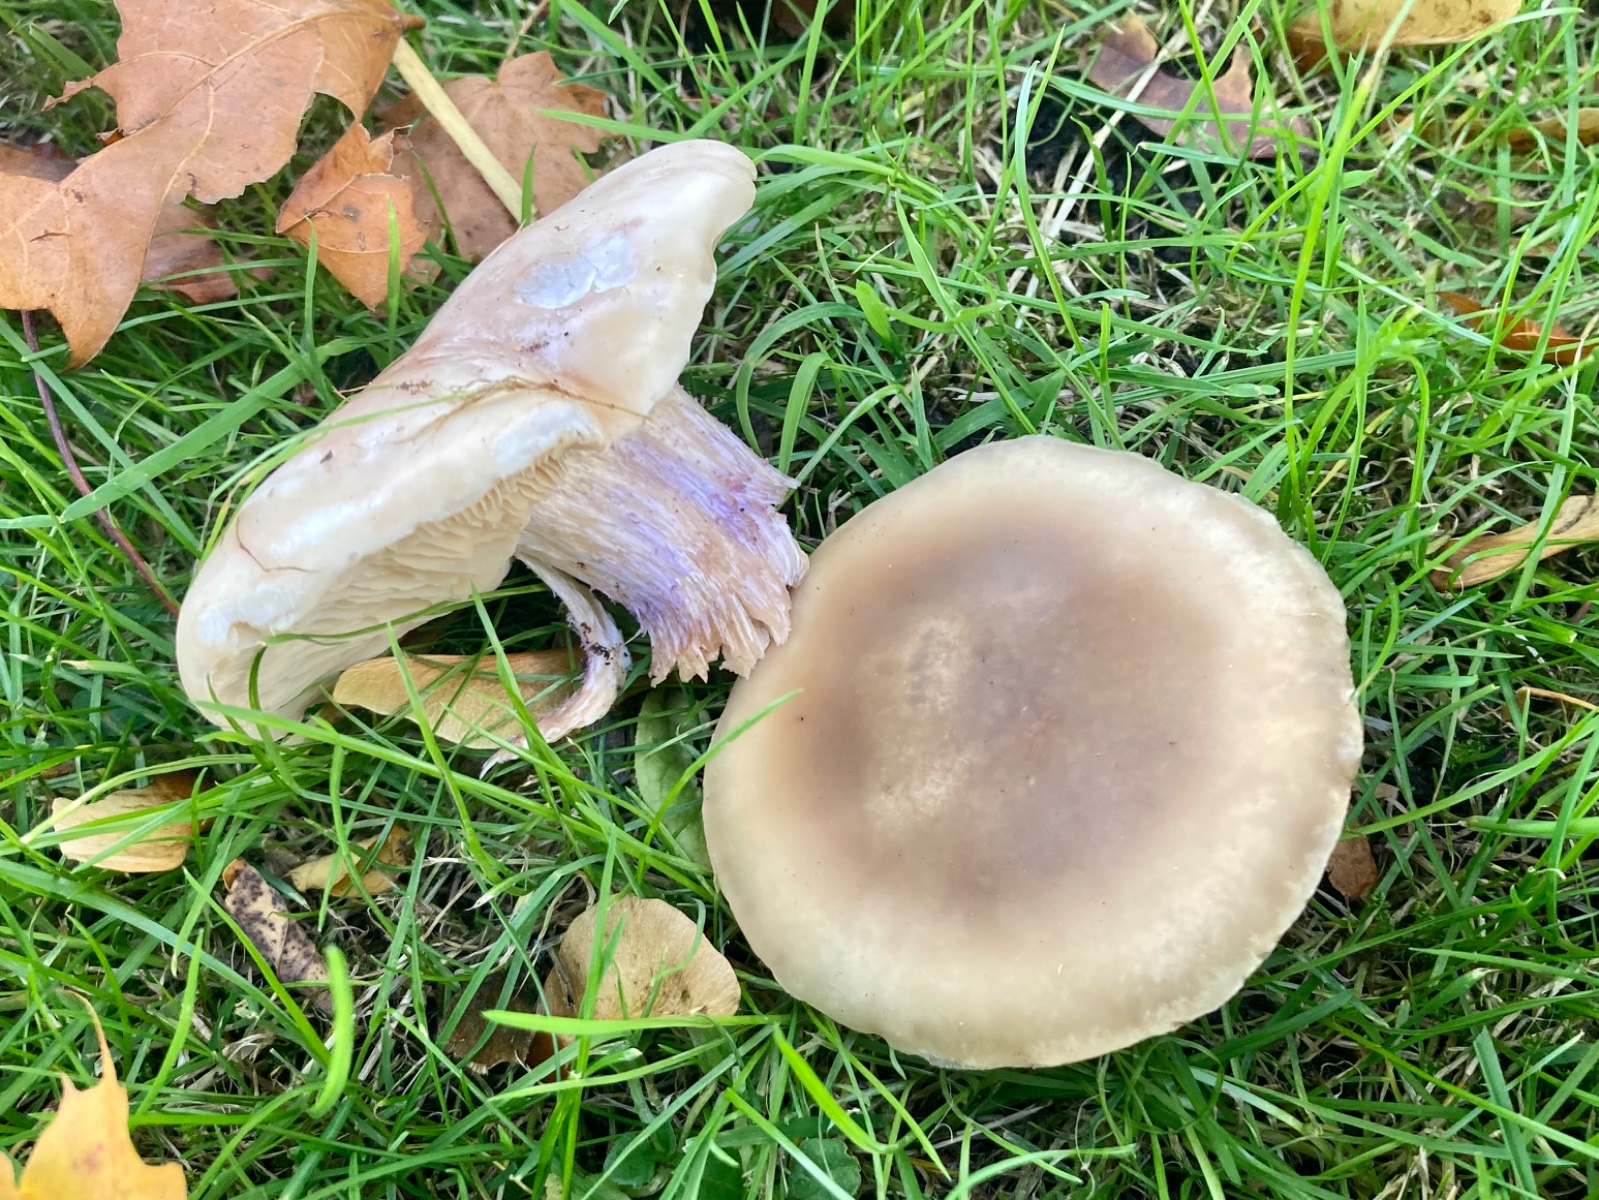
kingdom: Fungi
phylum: Basidiomycota
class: Agaricomycetes
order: Agaricales
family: Tricholomataceae
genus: Lepista
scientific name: Lepista personata
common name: bleg hekseringshat
